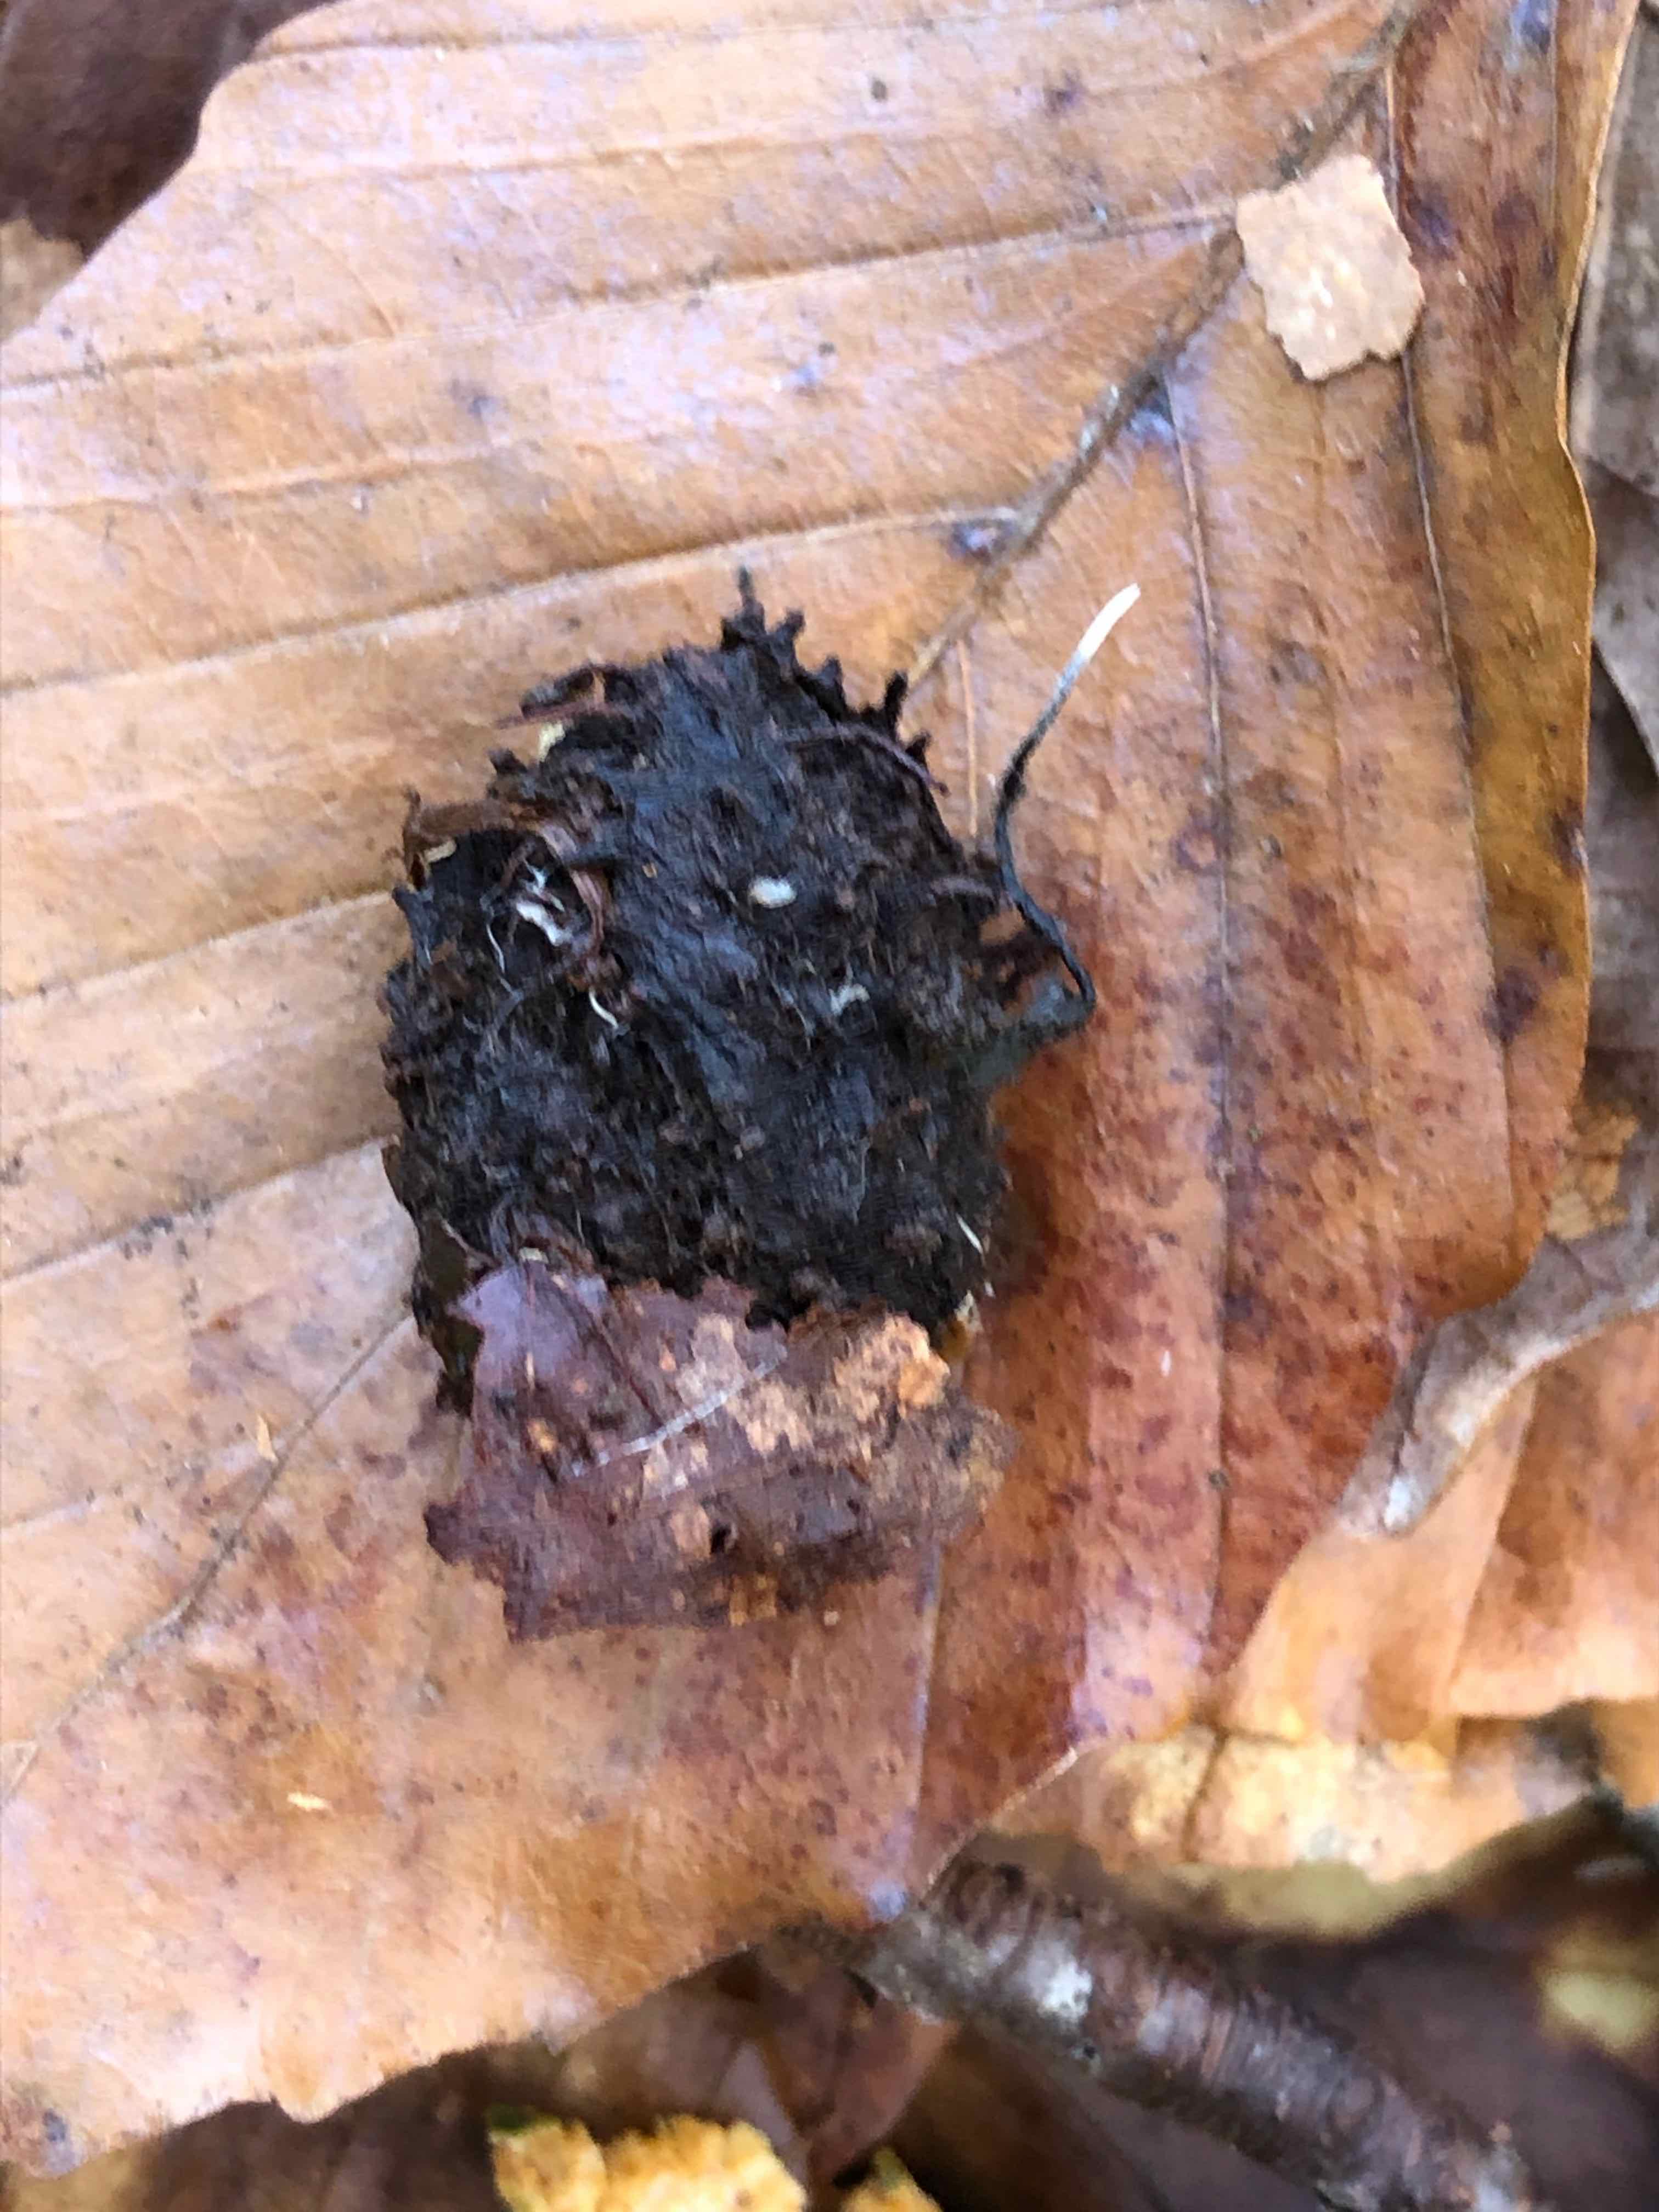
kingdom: Fungi
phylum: Ascomycota
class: Sordariomycetes
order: Xylariales
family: Xylariaceae
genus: Xylaria
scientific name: Xylaria carpophila
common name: bogskål-stødsvamp
